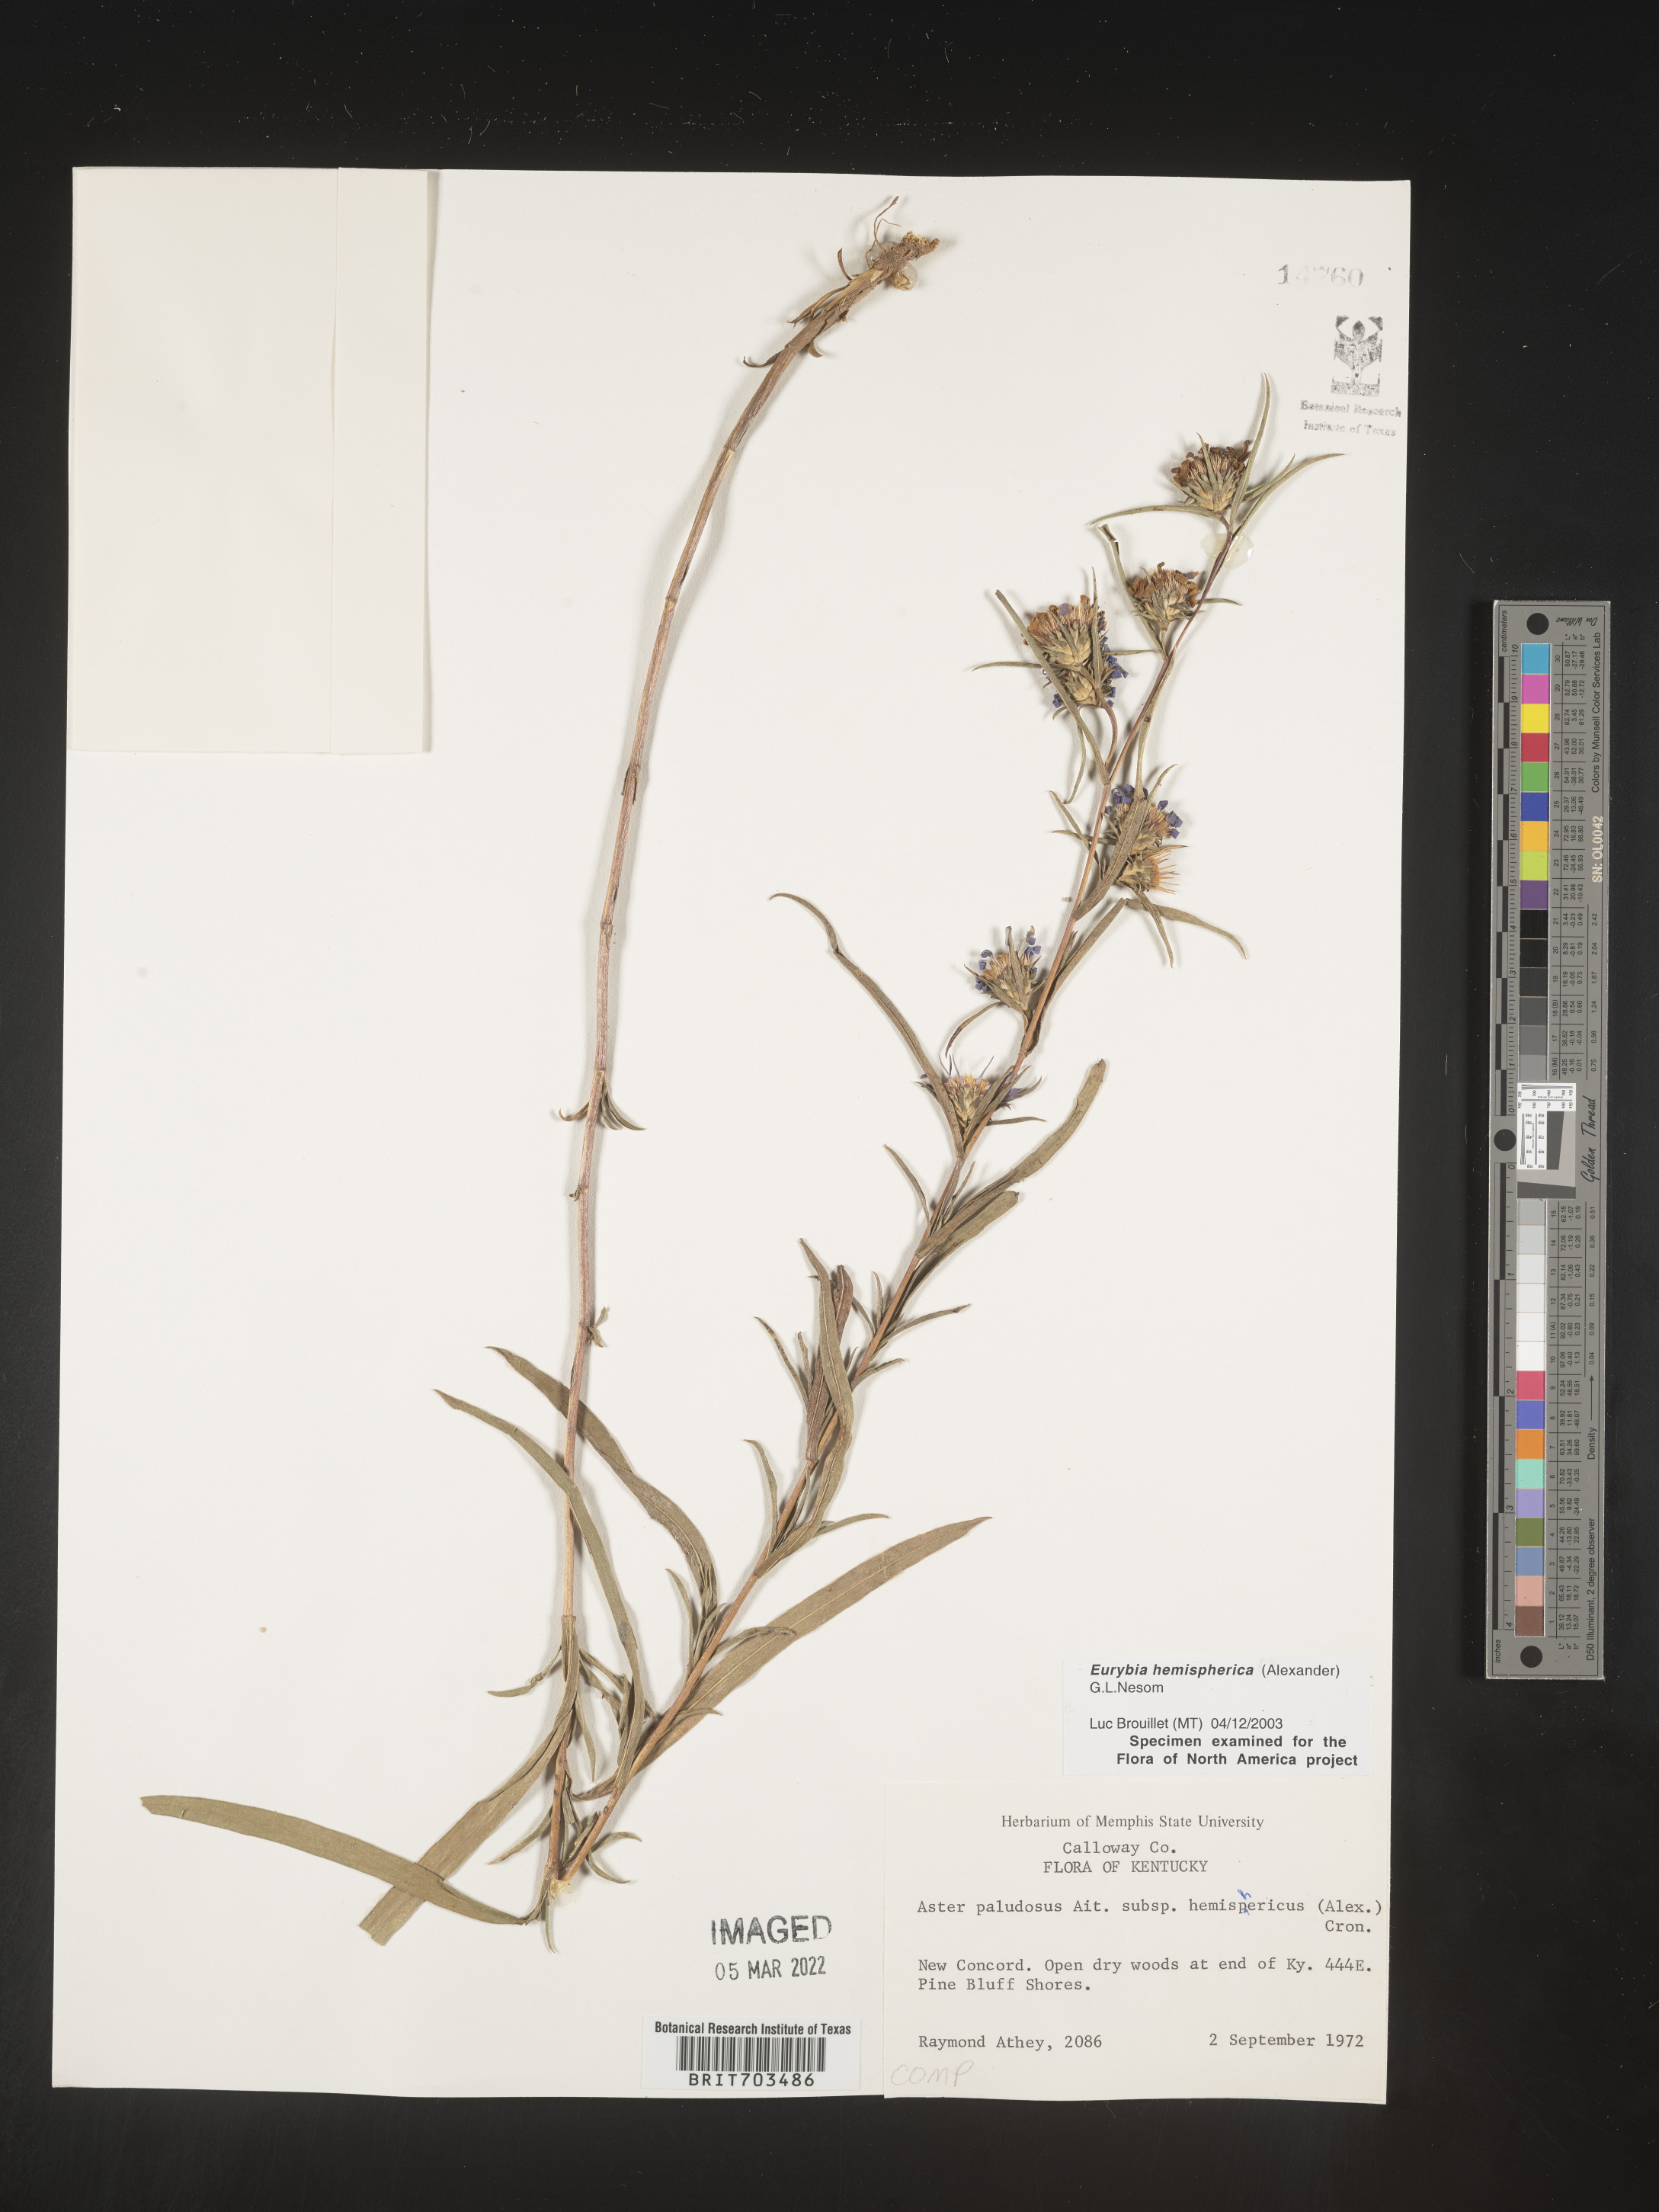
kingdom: Plantae
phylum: Tracheophyta
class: Magnoliopsida
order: Asterales
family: Asteraceae
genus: Eurybia
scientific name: Eurybia hemispherica
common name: Showy aster
